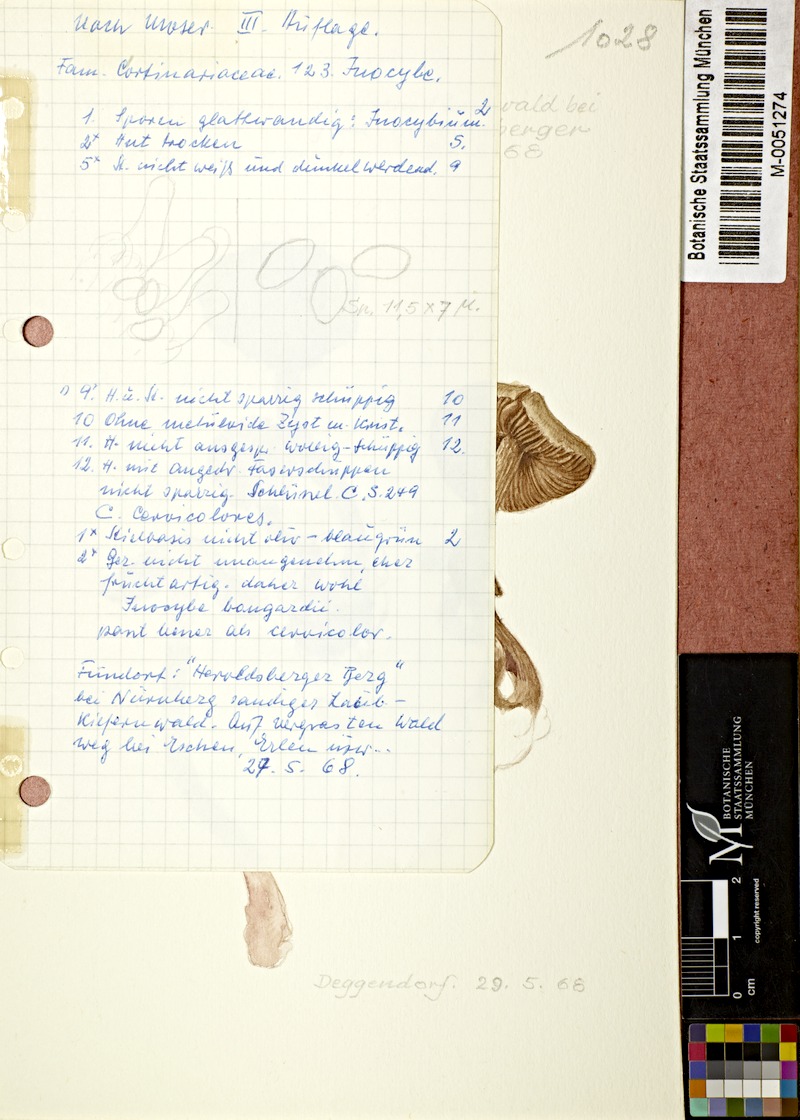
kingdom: Fungi
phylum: Basidiomycota
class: Agaricomycetes
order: Agaricales
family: Inocybaceae
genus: Inosperma
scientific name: Inosperma bongardii
